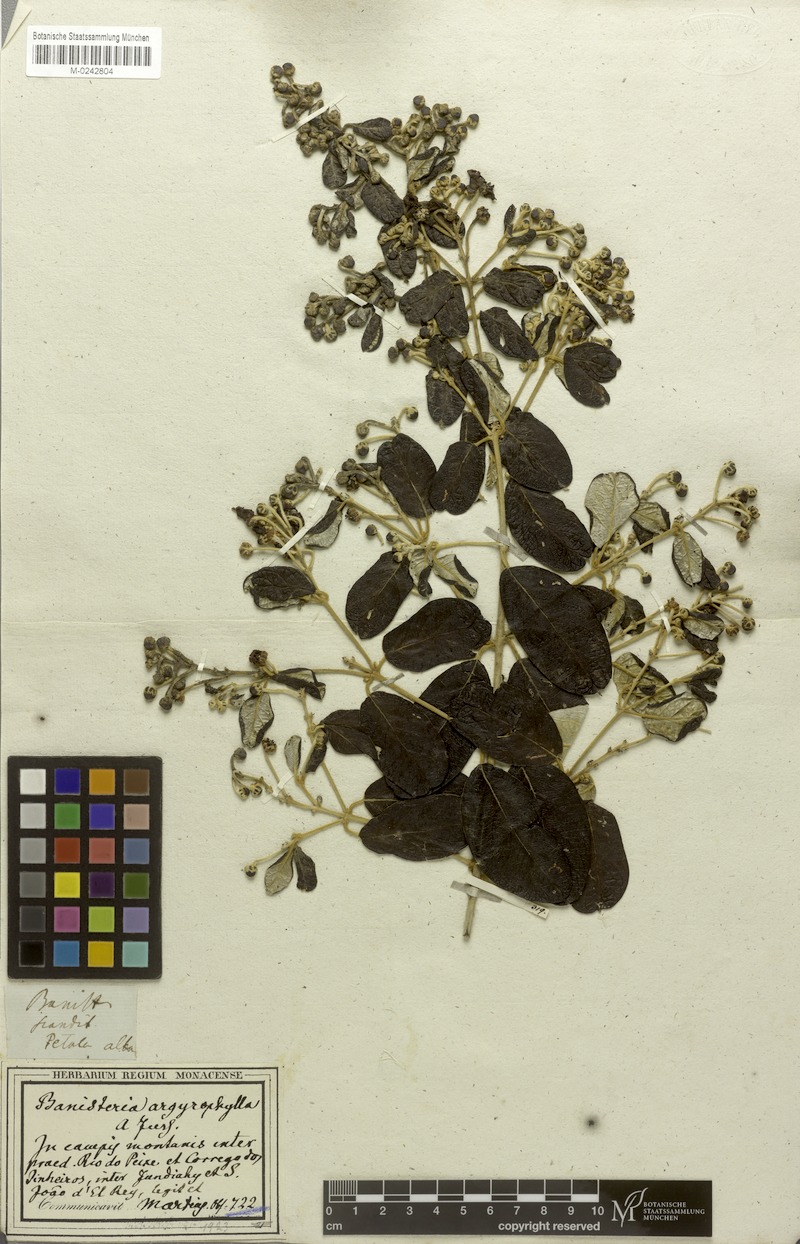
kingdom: Plantae
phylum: Tracheophyta
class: Magnoliopsida
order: Malpighiales
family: Malpighiaceae
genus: Banisteriopsis
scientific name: Banisteriopsis argyrophylla
